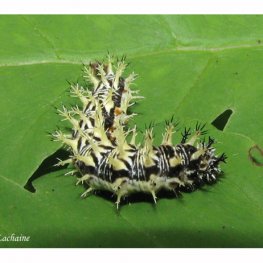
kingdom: Animalia
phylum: Arthropoda
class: Insecta
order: Lepidoptera
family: Nymphalidae
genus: Polygonia
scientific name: Polygonia comma
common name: Eastern Comma
